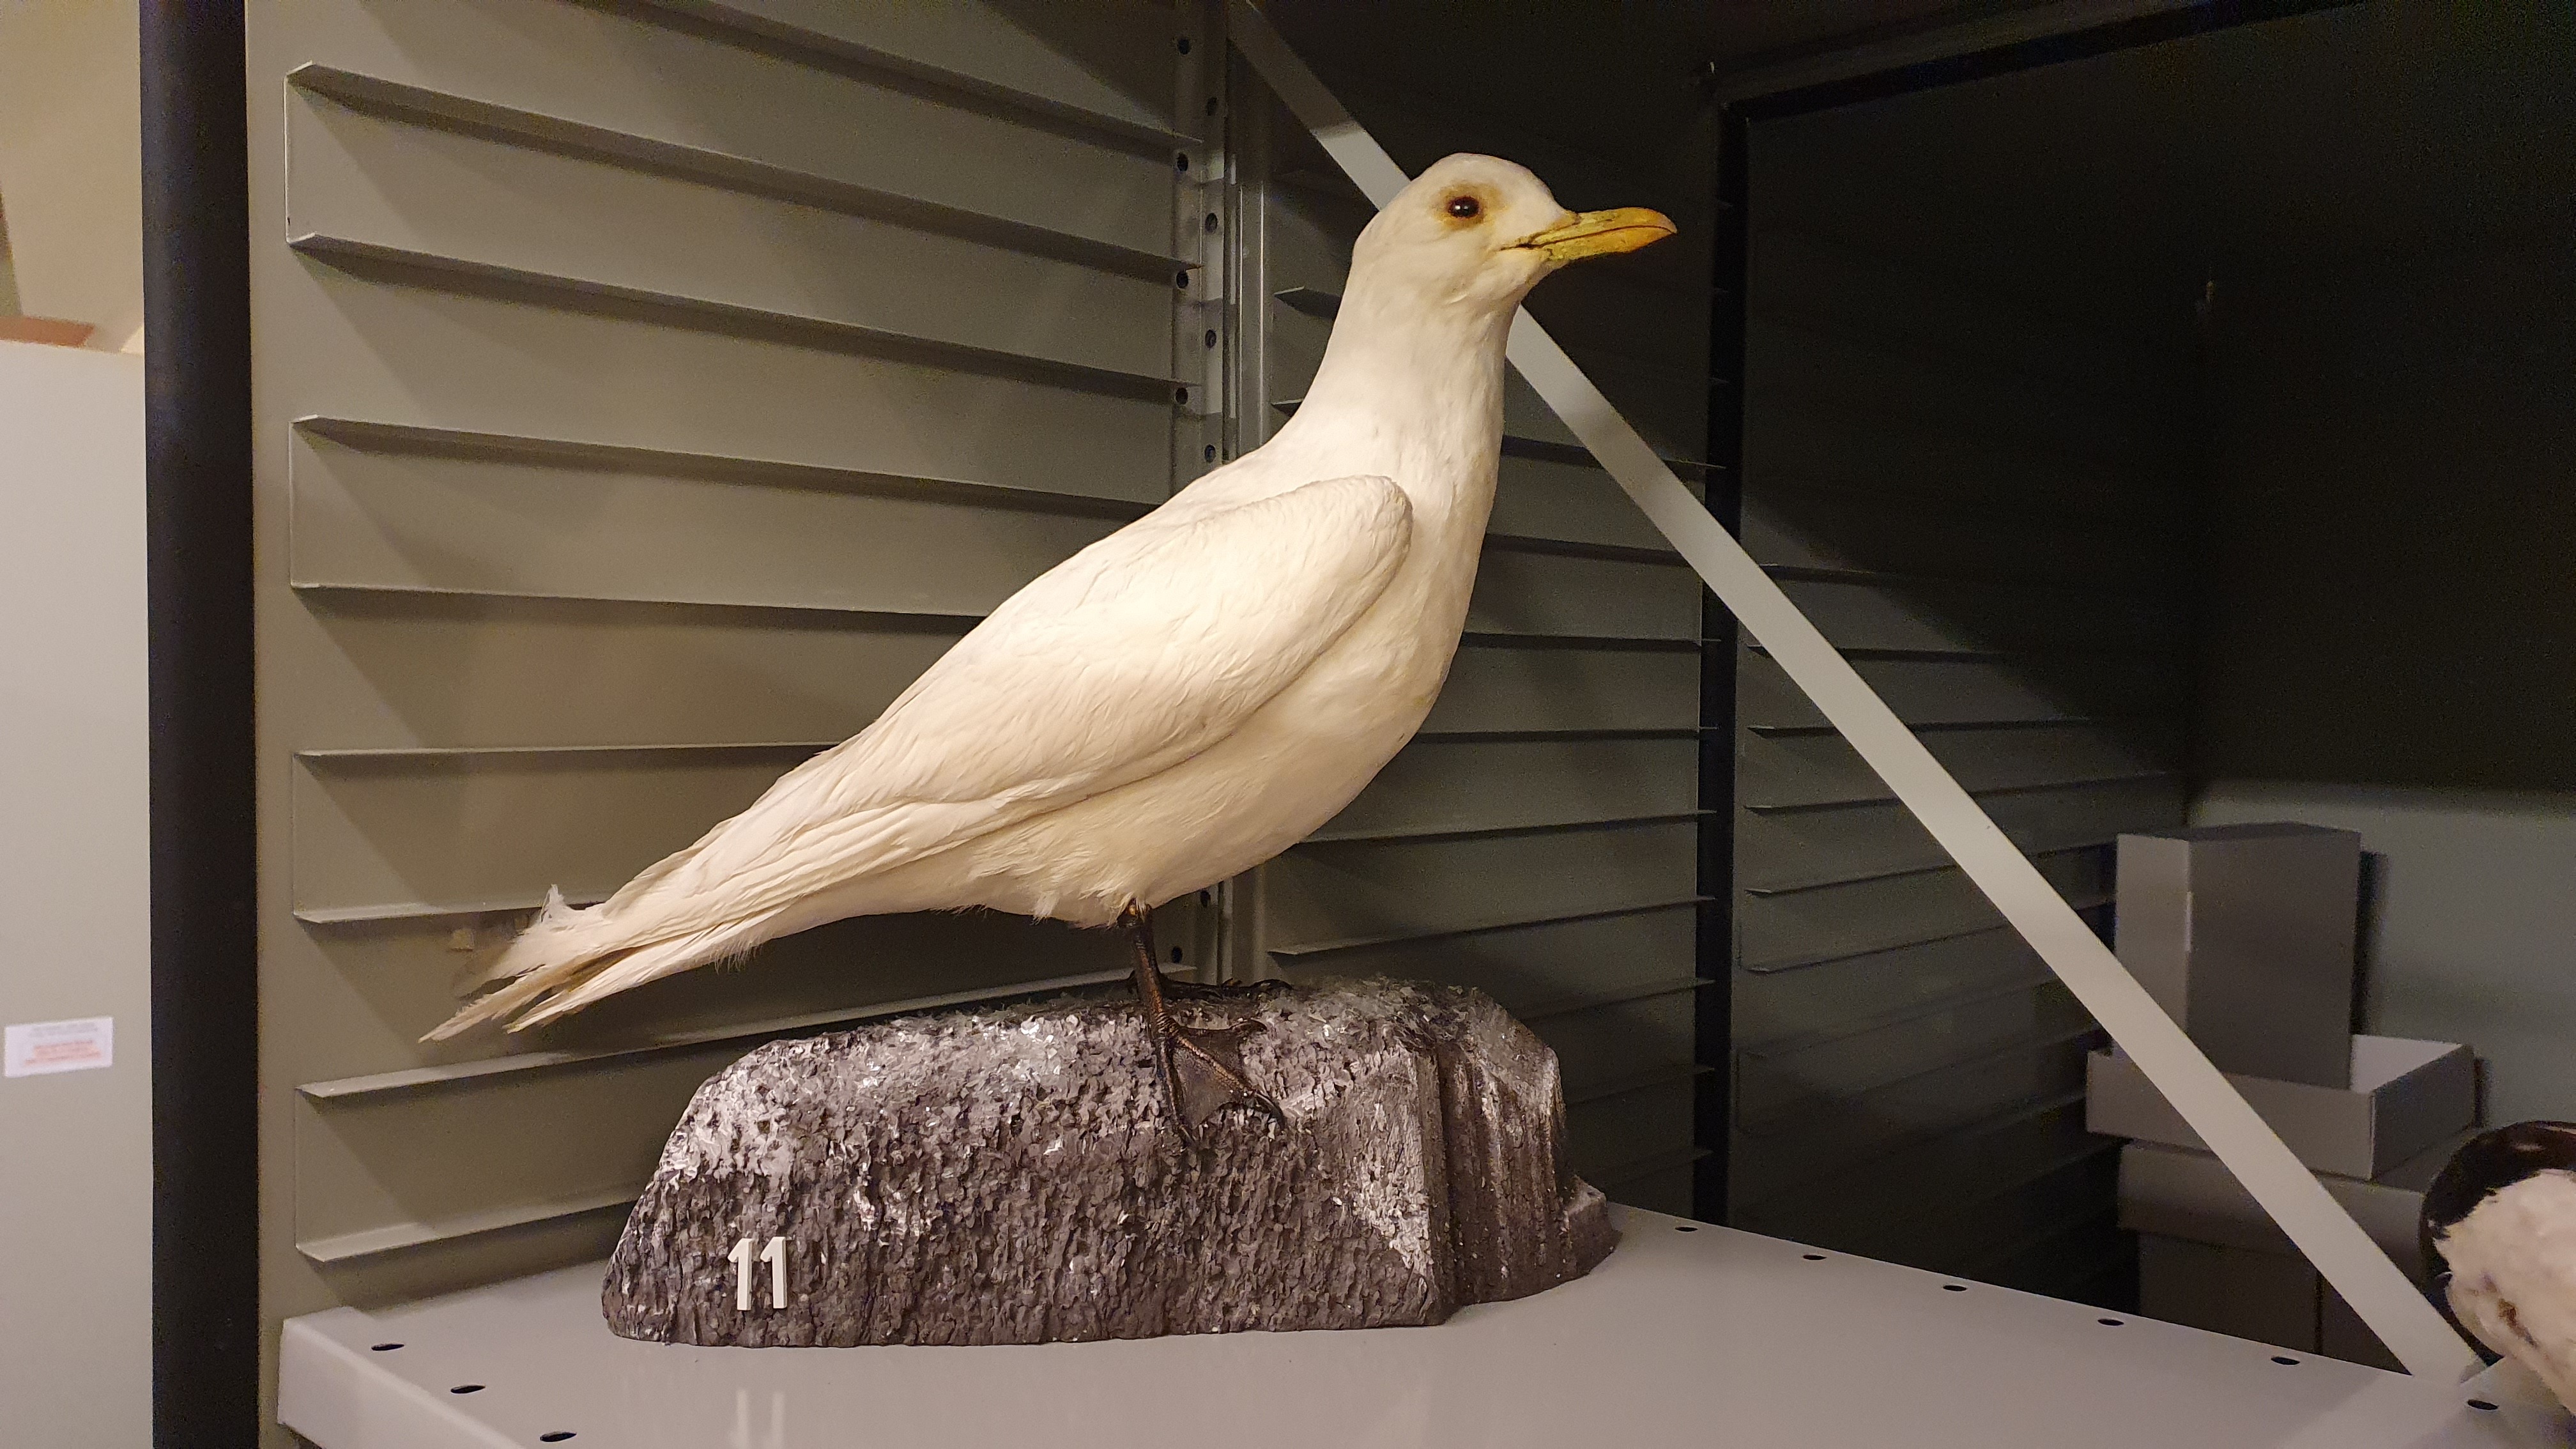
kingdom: Animalia
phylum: Chordata
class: Aves
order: Charadriiformes
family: Laridae
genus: Pagophila
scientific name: Pagophila eburnea
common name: Ivory gull
